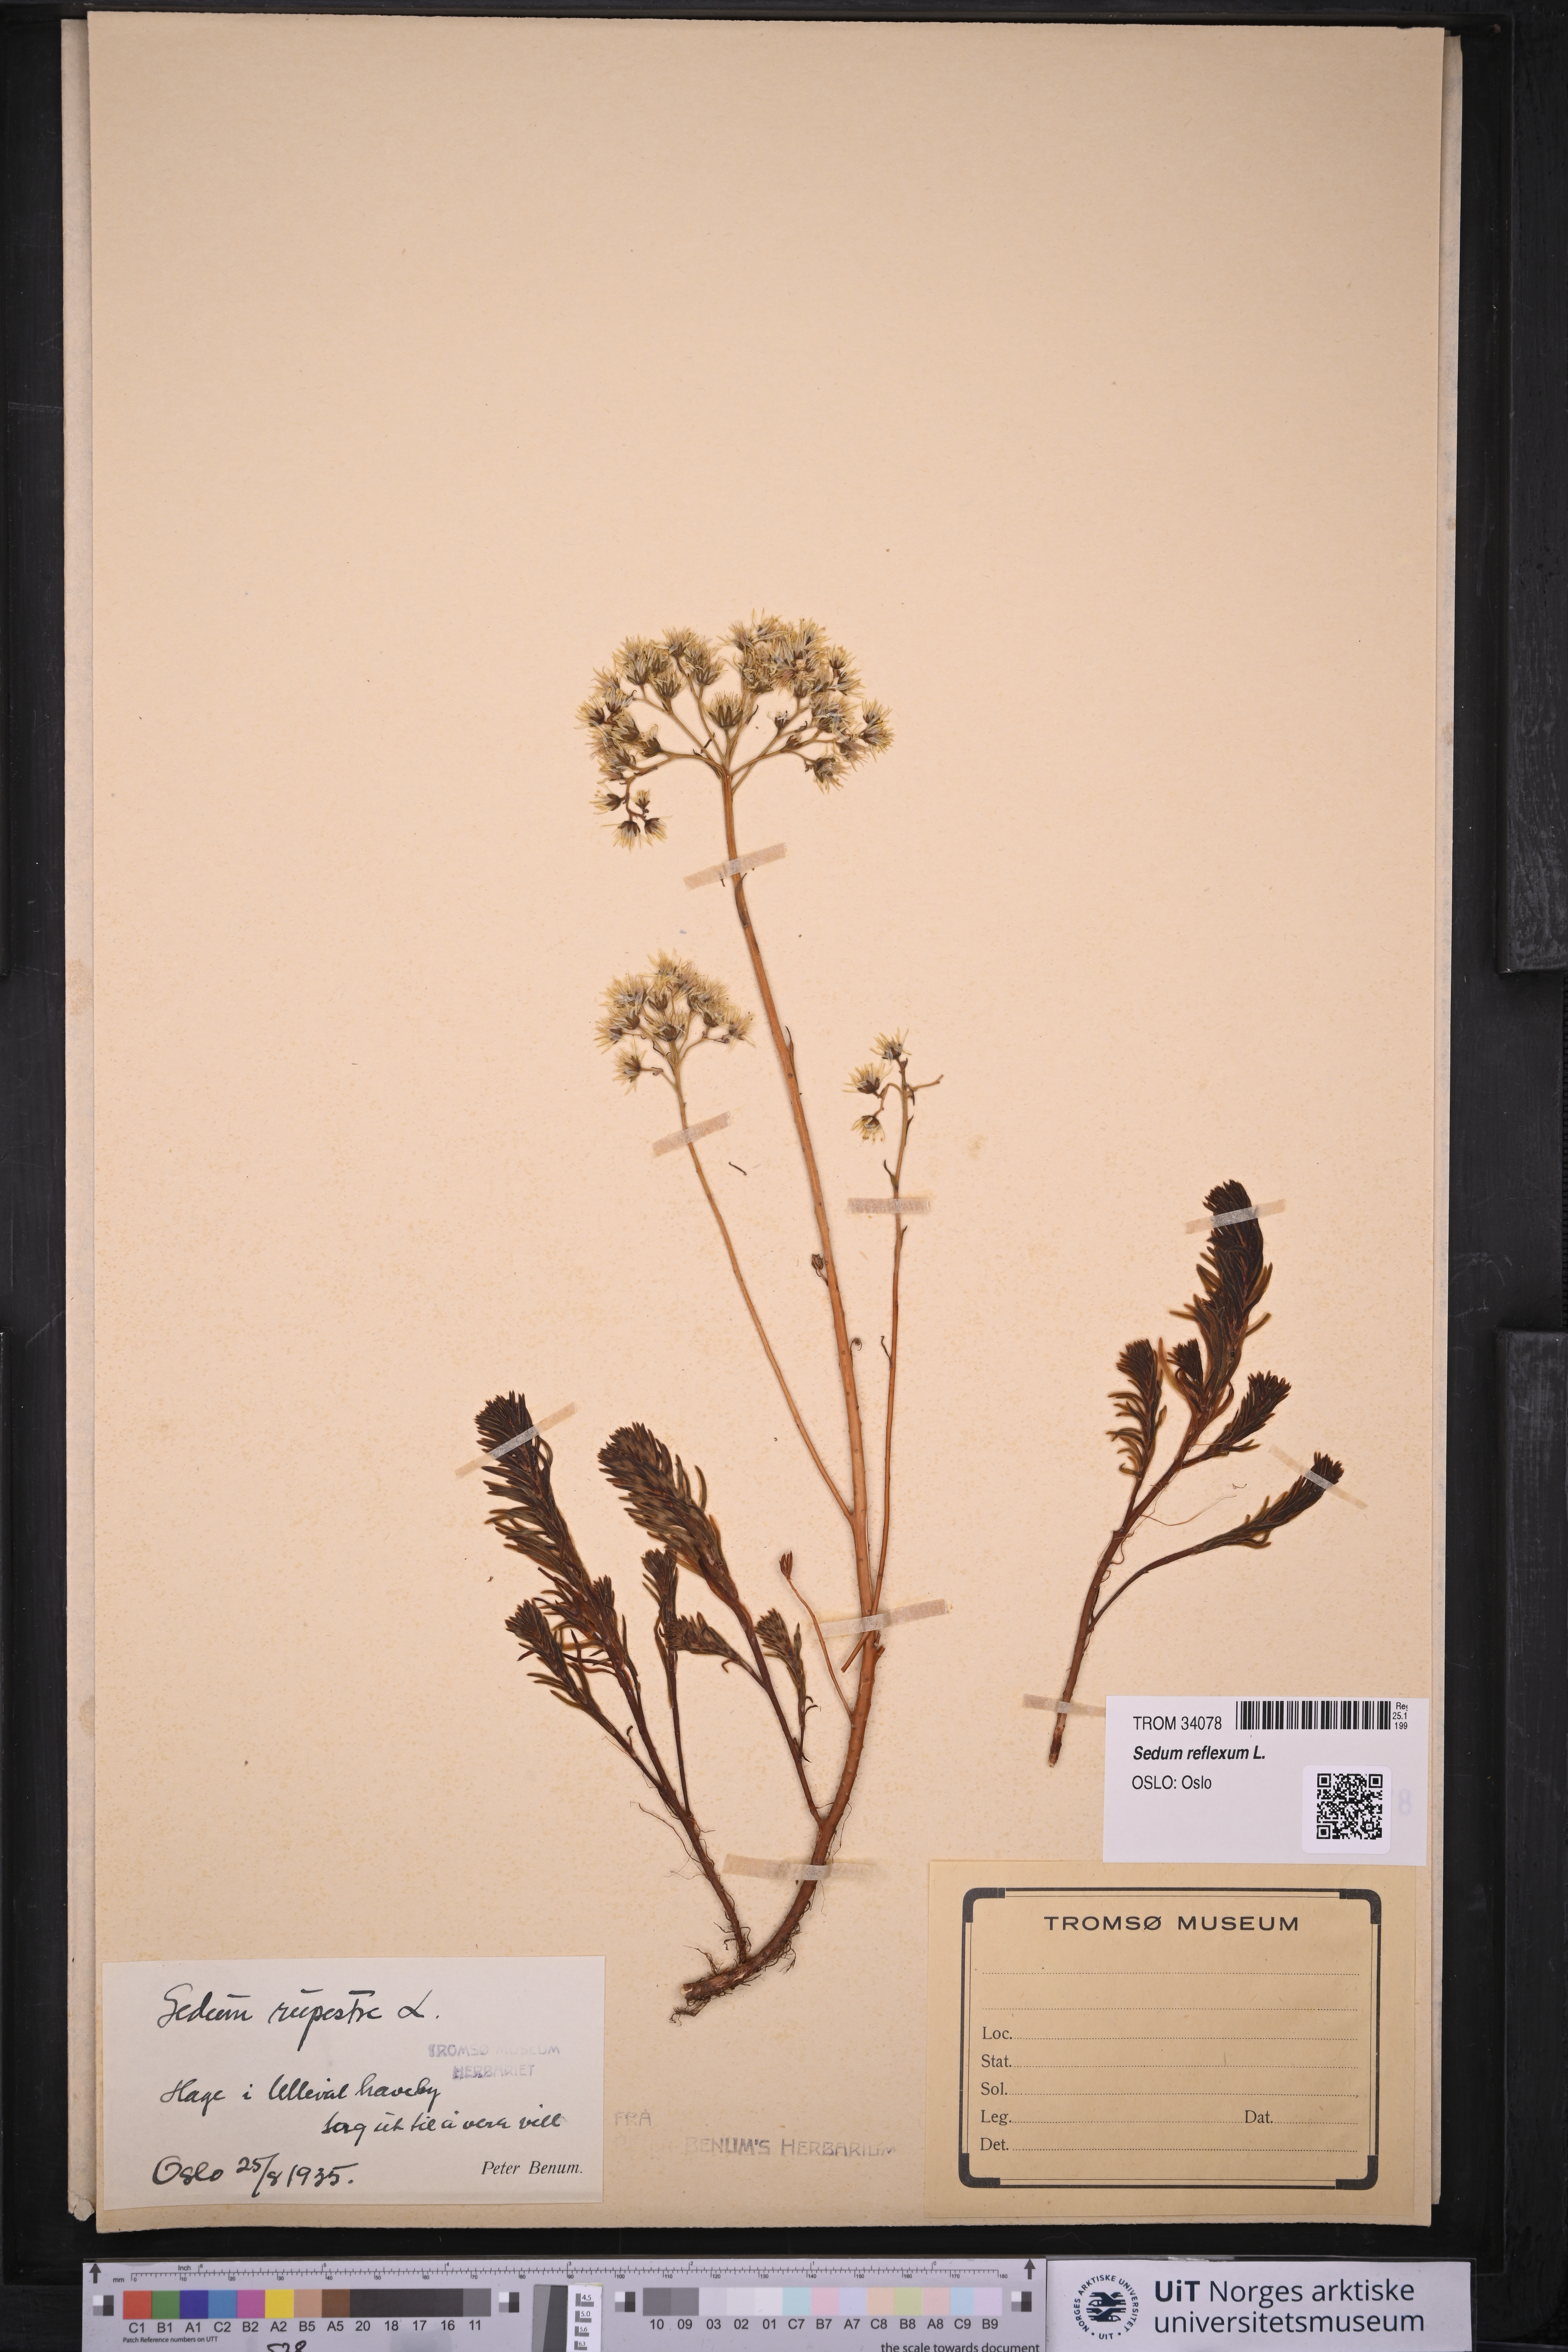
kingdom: Plantae
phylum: Tracheophyta
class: Magnoliopsida
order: Saxifragales
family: Crassulaceae
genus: Petrosedum
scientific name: Petrosedum rupestre
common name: Jenny's stonecrop
